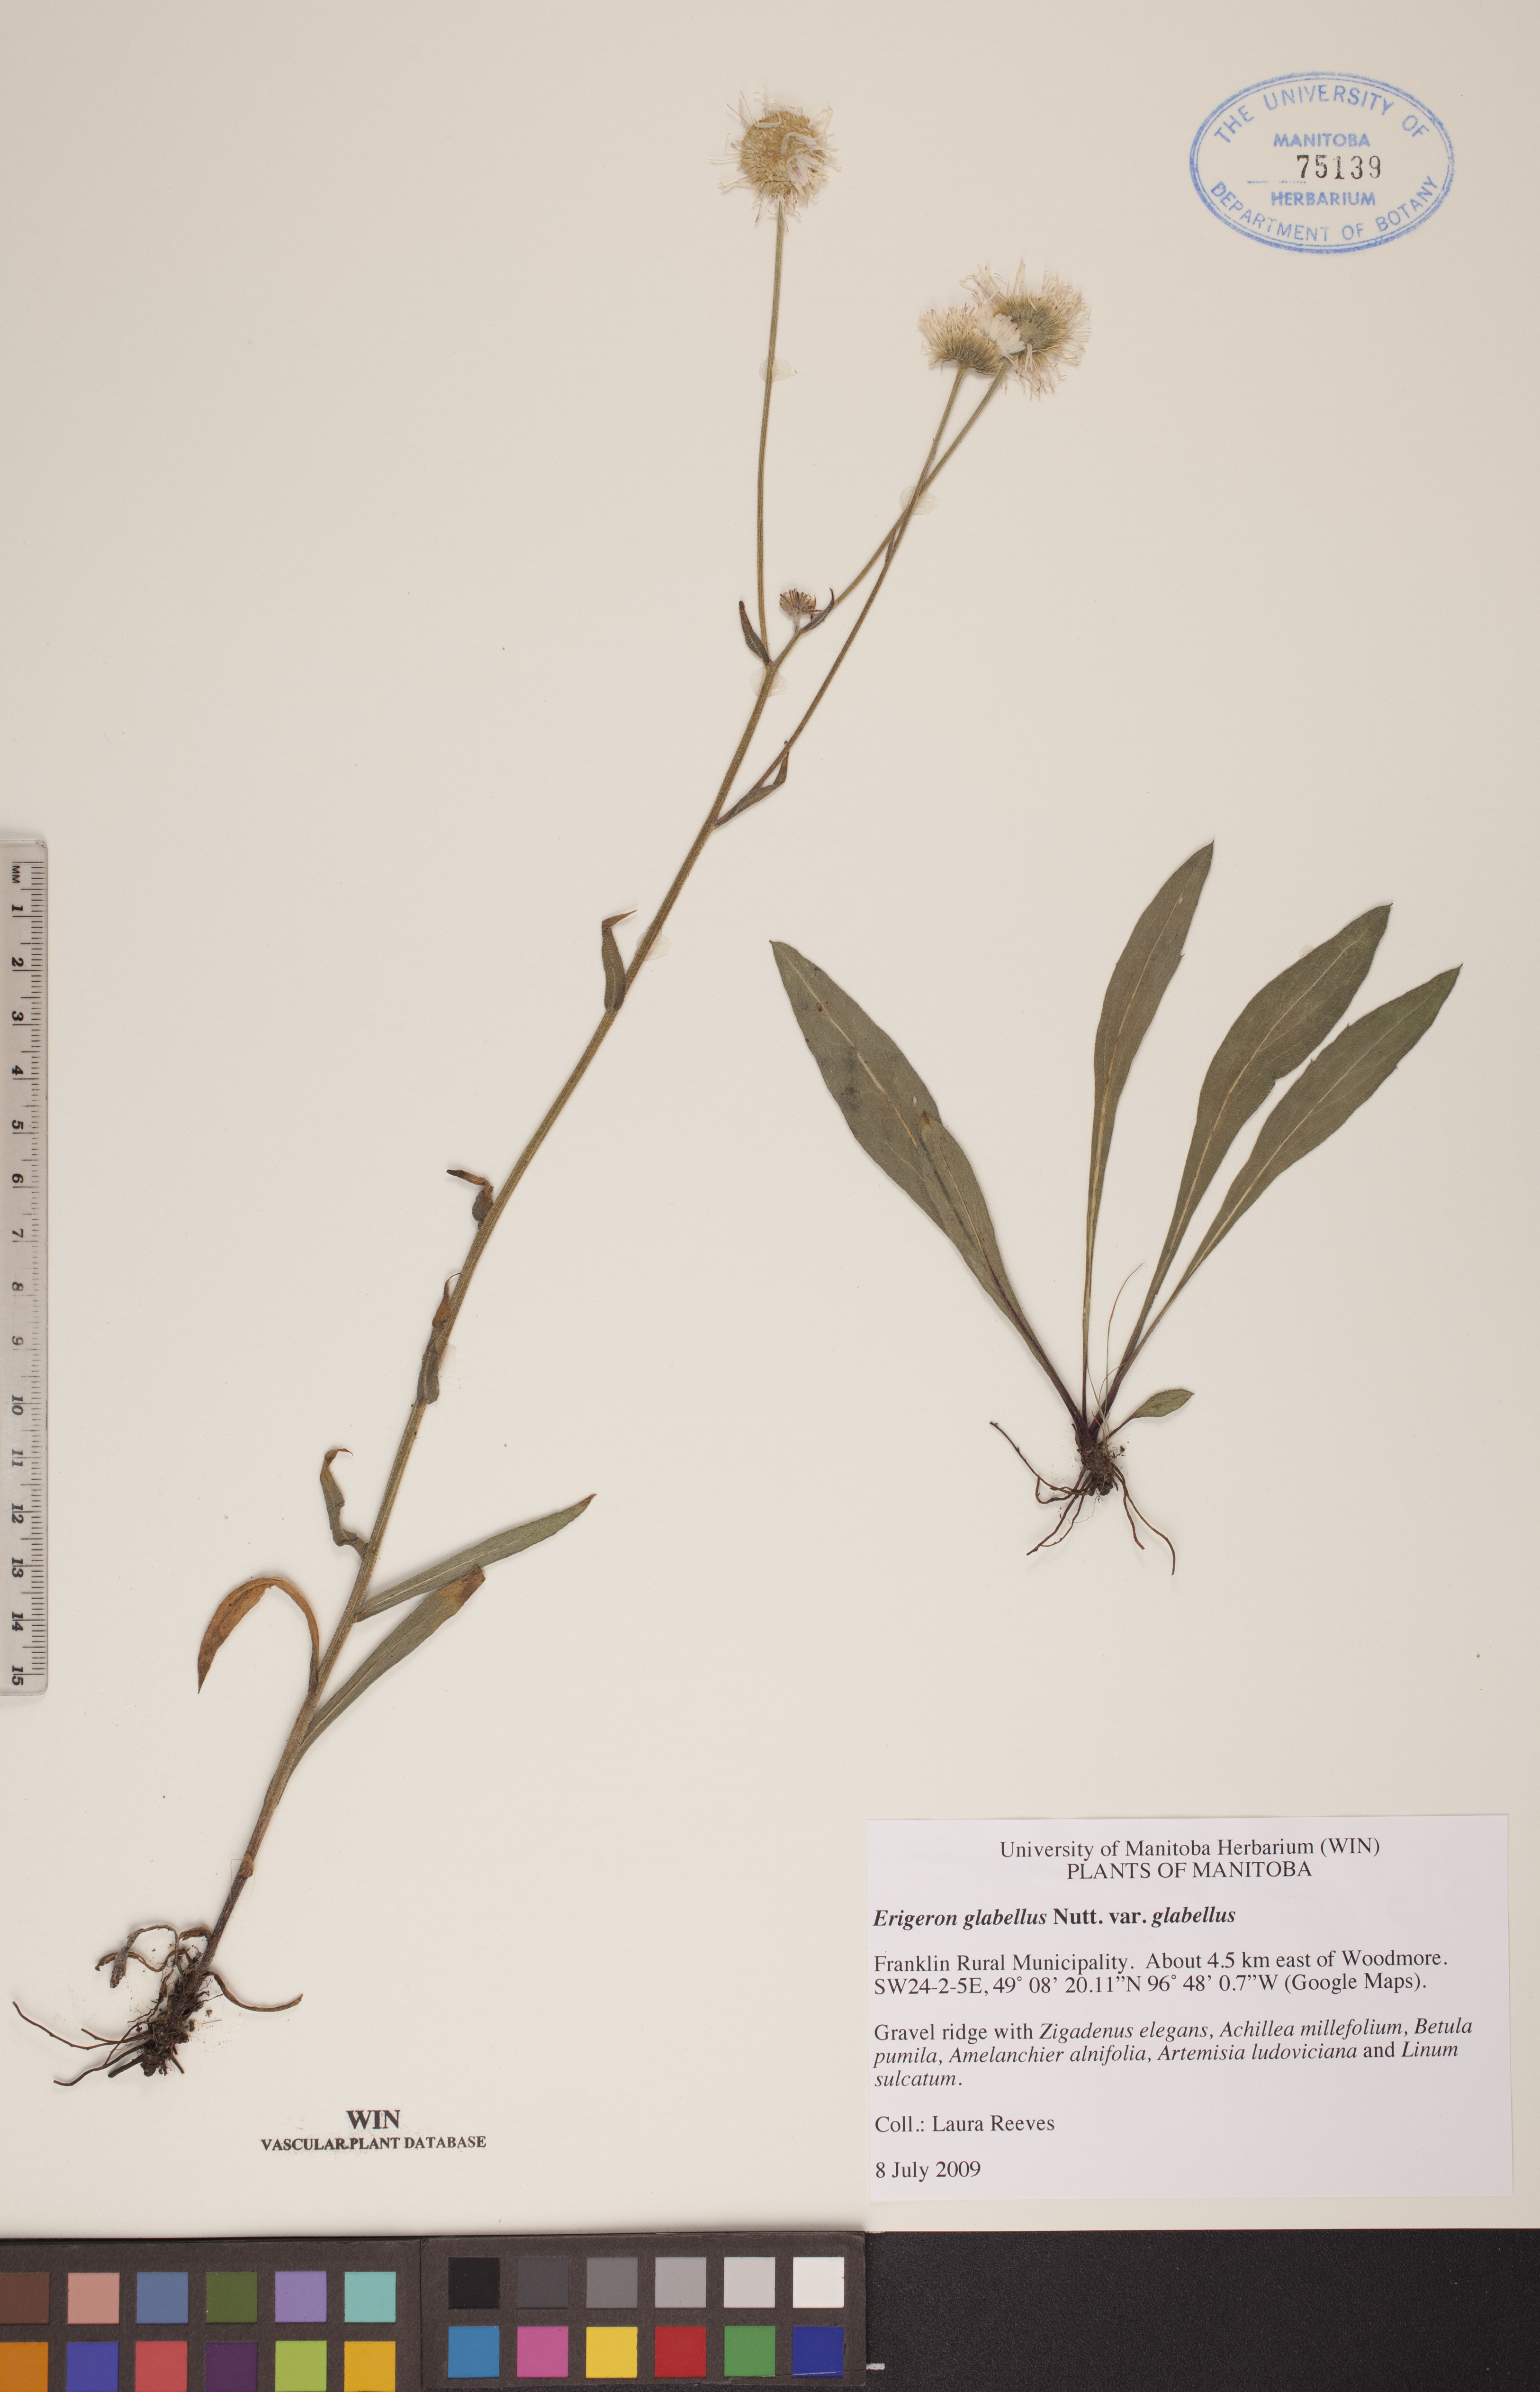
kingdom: Plantae
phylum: Tracheophyta
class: Magnoliopsida
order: Asterales
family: Asteraceae
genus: Erigeron
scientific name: Erigeron glabellus
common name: Smooth fleabane
